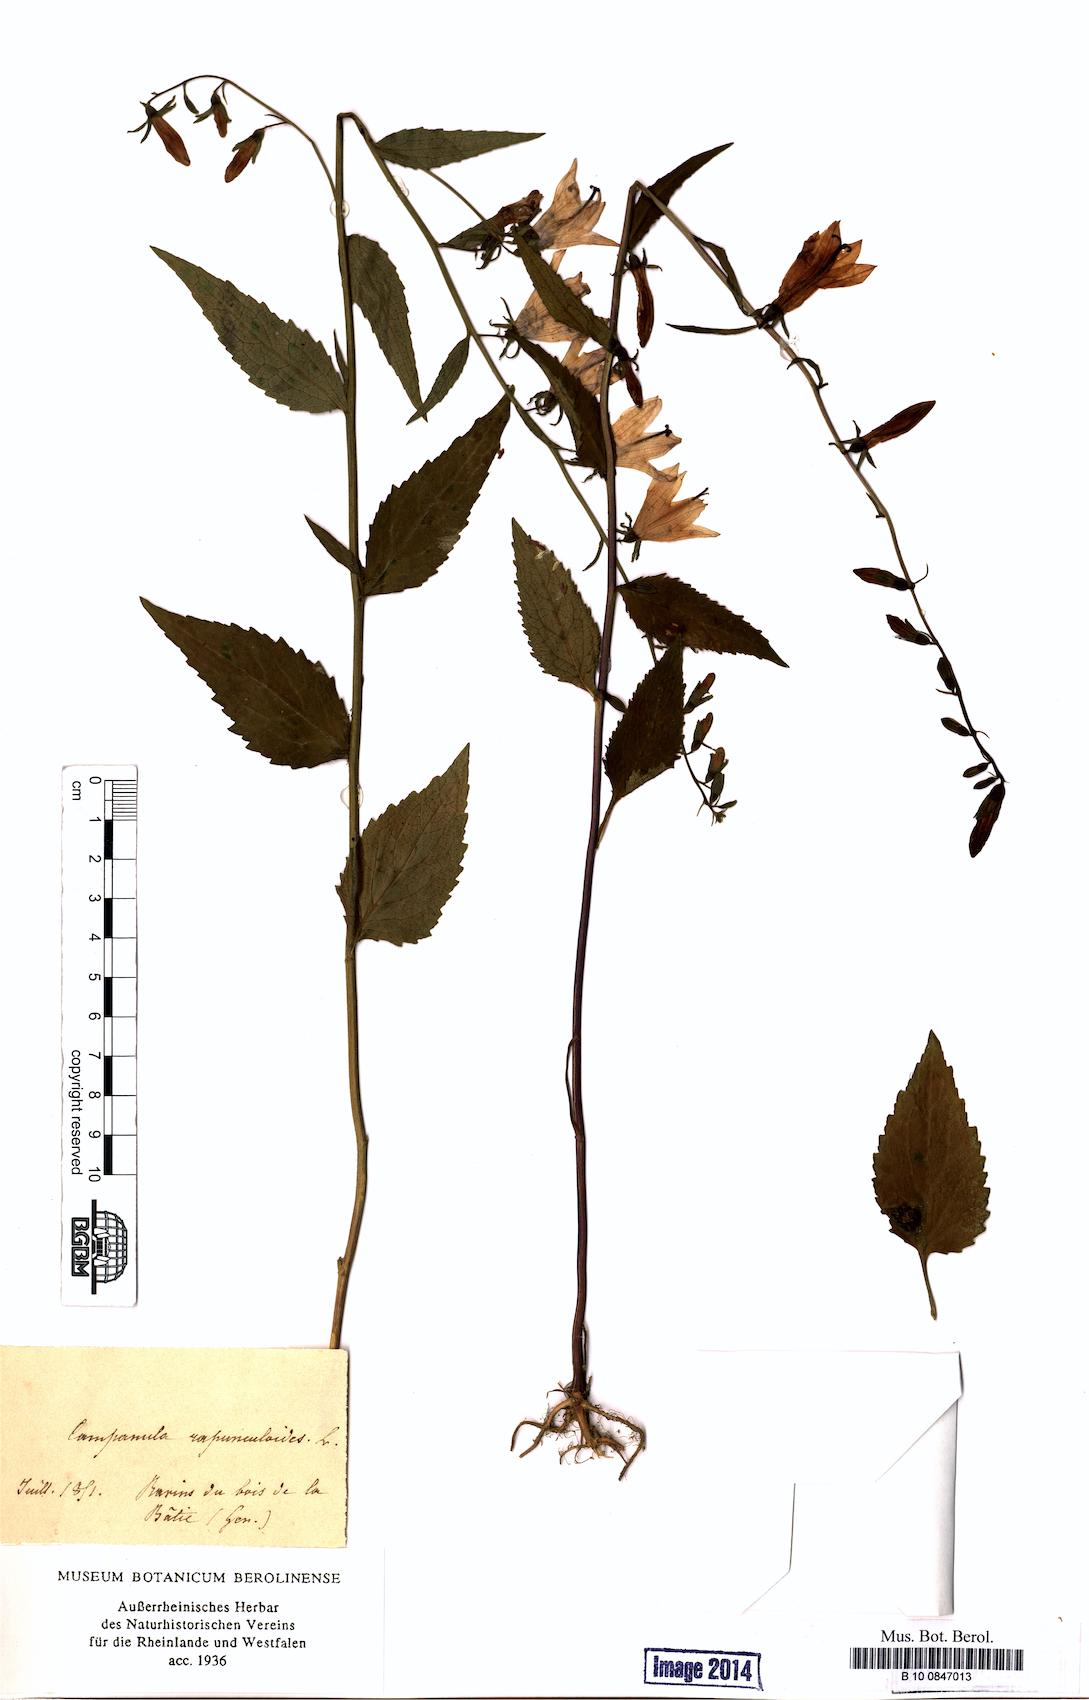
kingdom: Plantae
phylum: Tracheophyta
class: Magnoliopsida
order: Asterales
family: Campanulaceae
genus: Campanula
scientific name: Campanula rapunculoides
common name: Creeping bellflower
